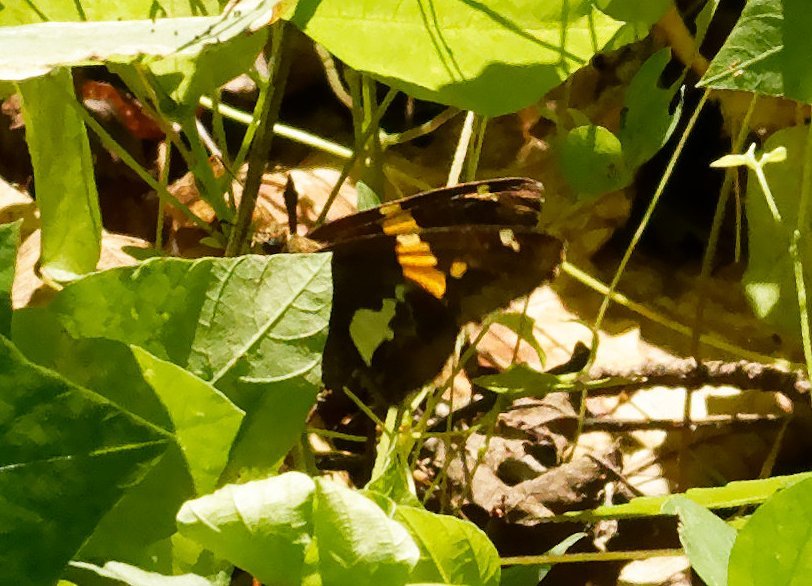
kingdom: Animalia
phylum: Arthropoda
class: Insecta
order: Lepidoptera
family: Hesperiidae
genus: Epargyreus
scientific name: Epargyreus clarus
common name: Silver-spotted Skipper
